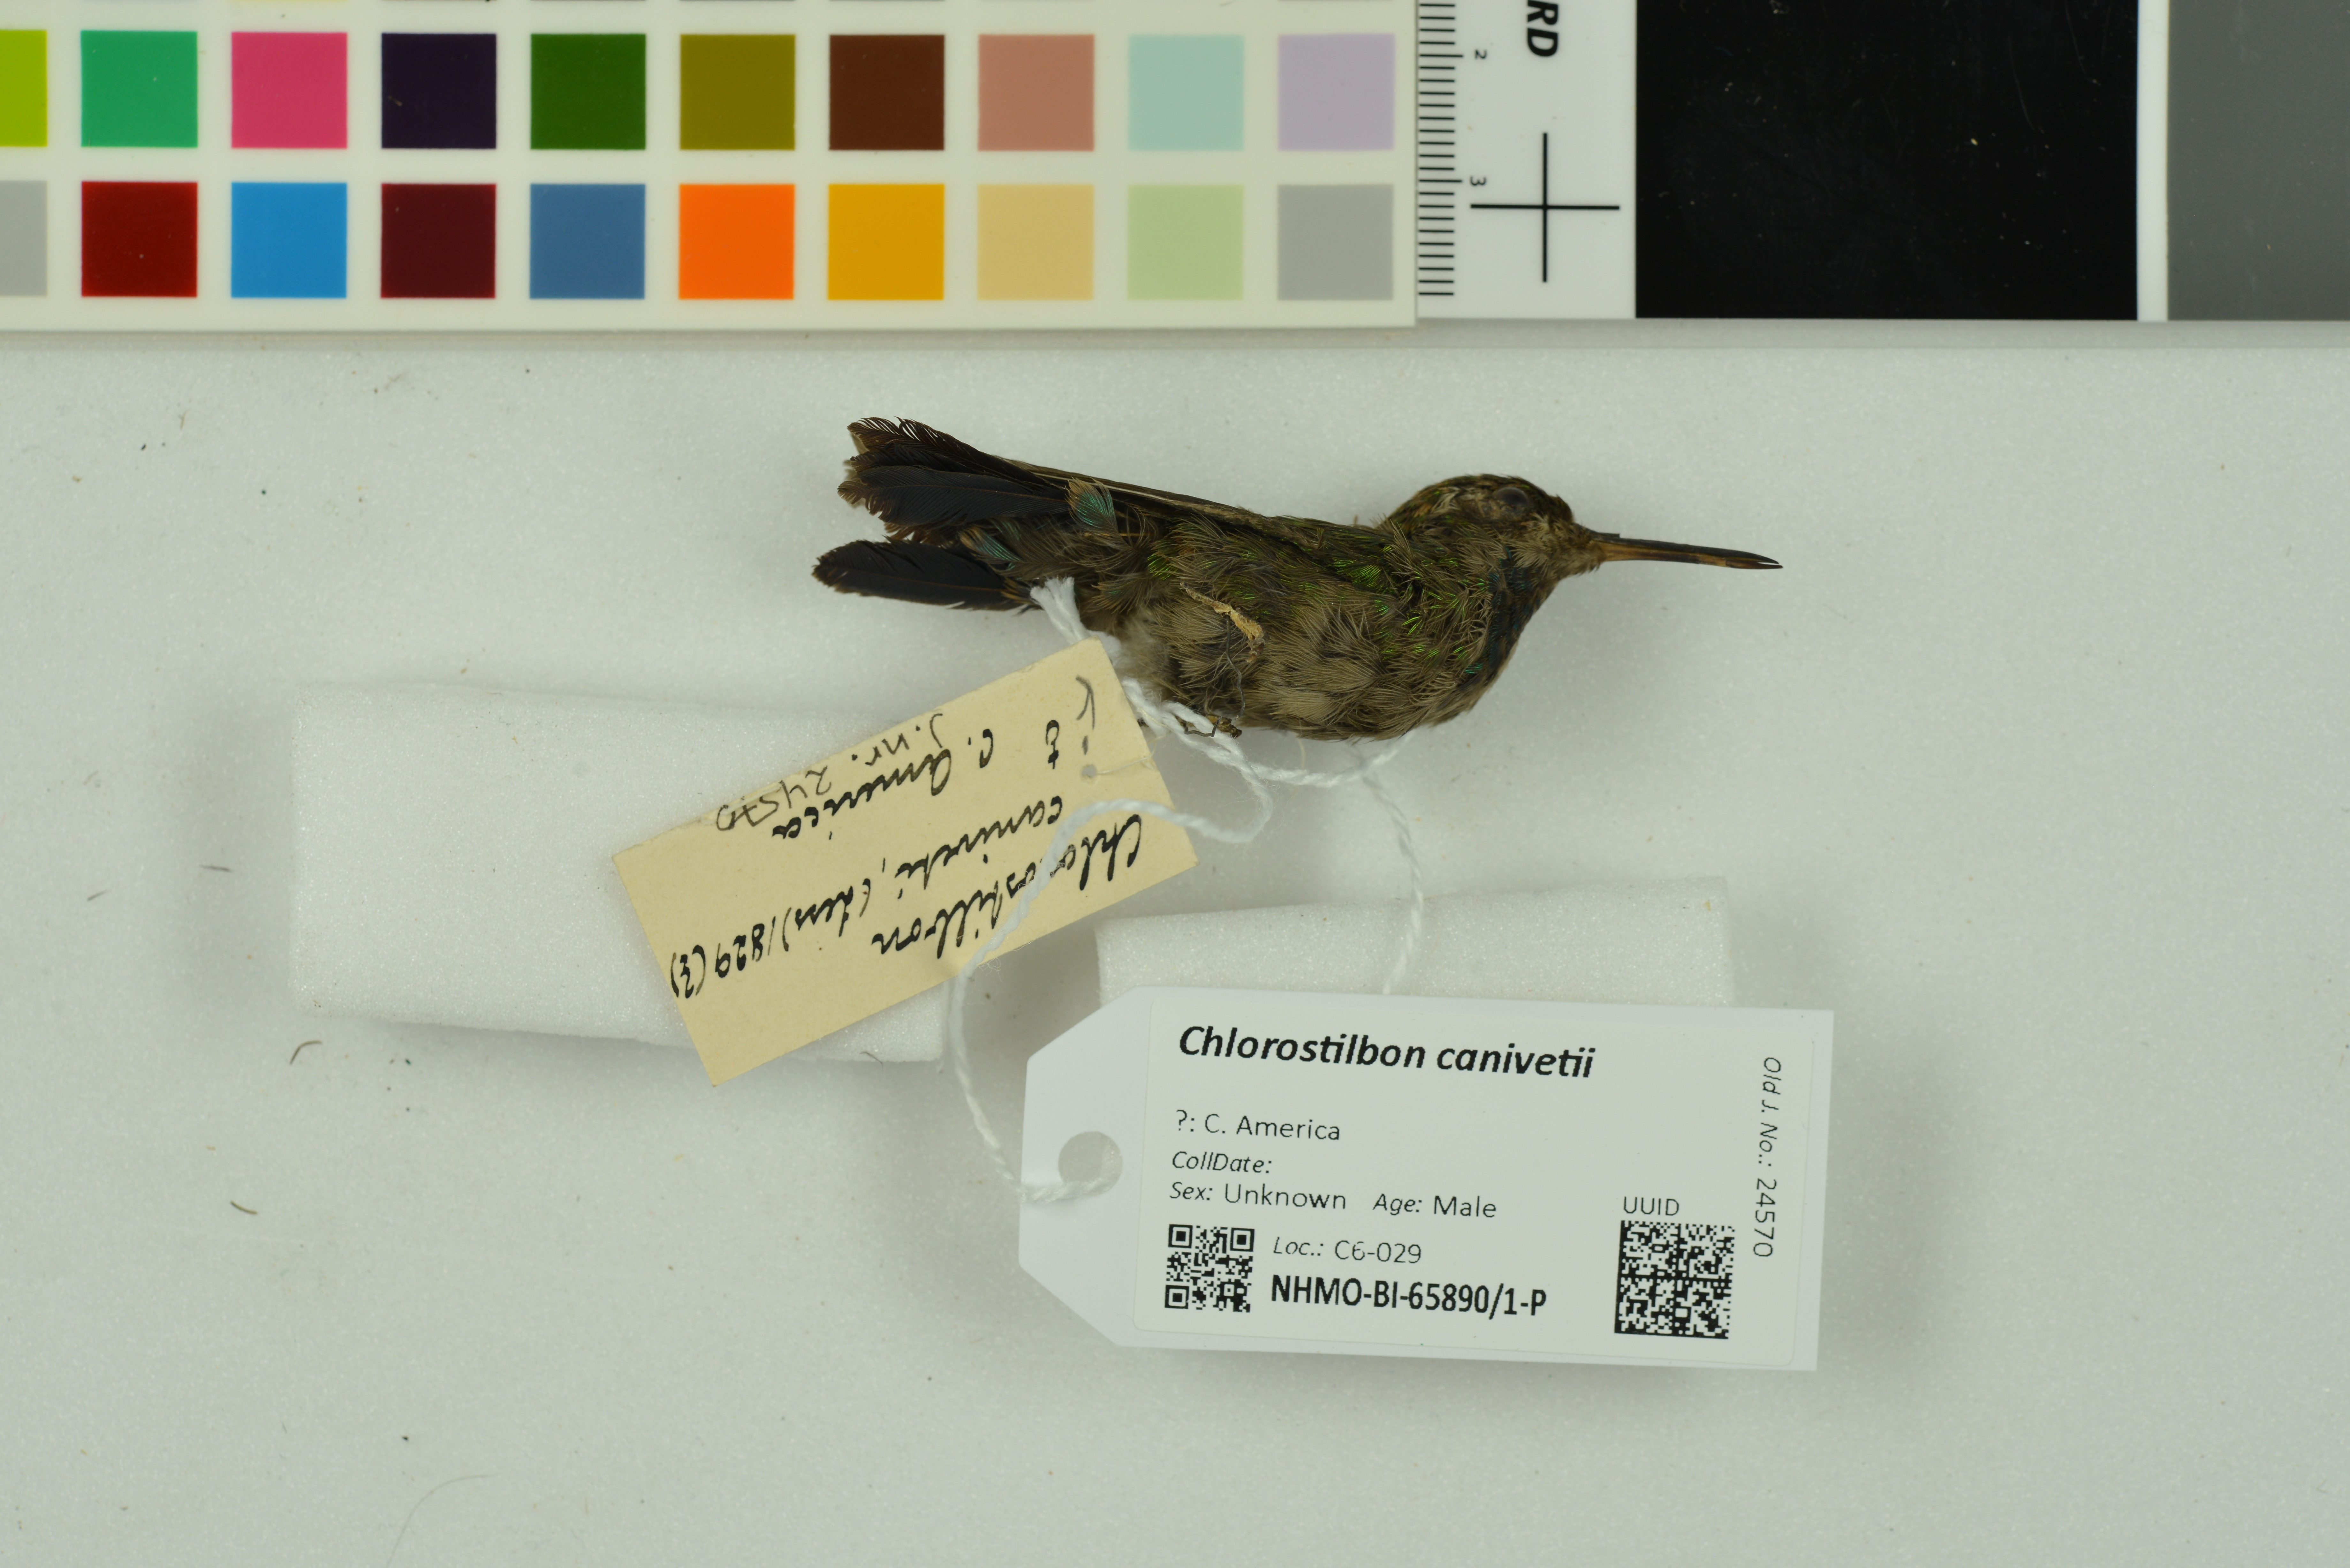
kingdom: Animalia
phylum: Chordata
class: Aves
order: Apodiformes
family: Trochilidae
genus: Cynanthus
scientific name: Cynanthus canivetii
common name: Canivet's emerald
